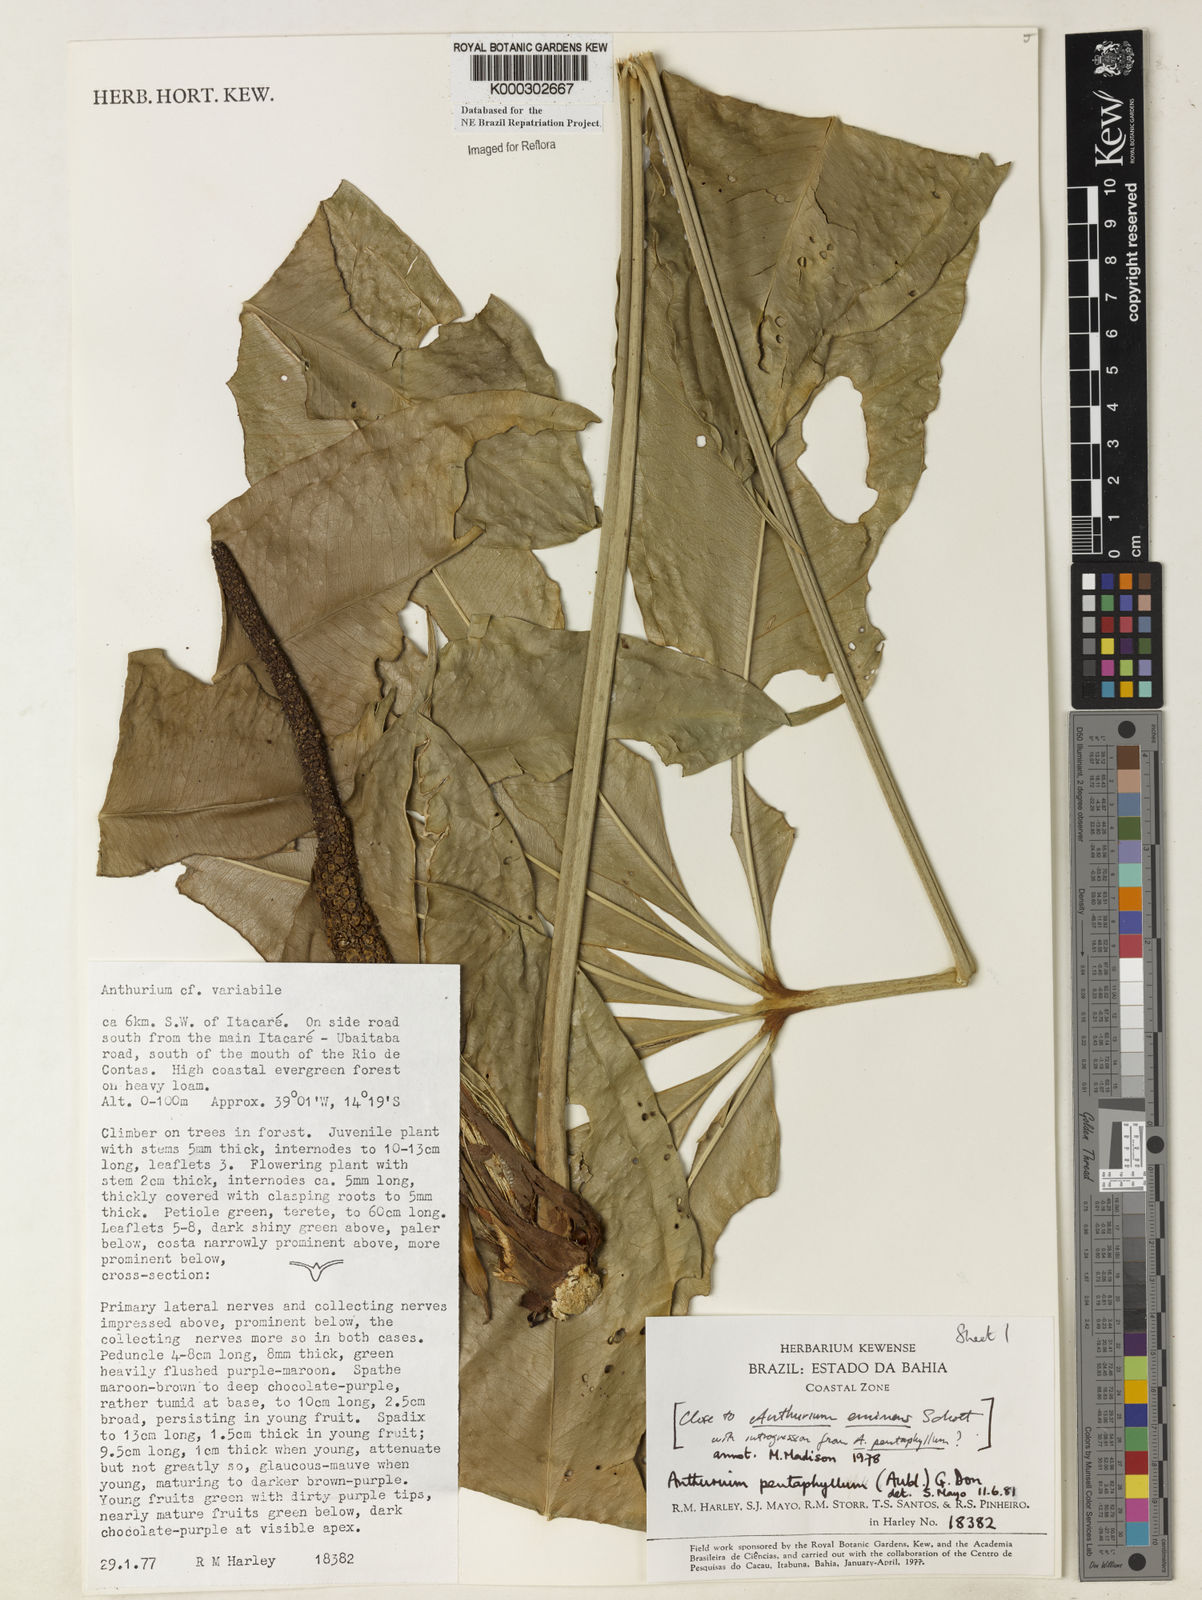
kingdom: Plantae
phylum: Tracheophyta
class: Liliopsida
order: Alismatales
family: Araceae
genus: Anthurium
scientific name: Anthurium pentaphyllum
